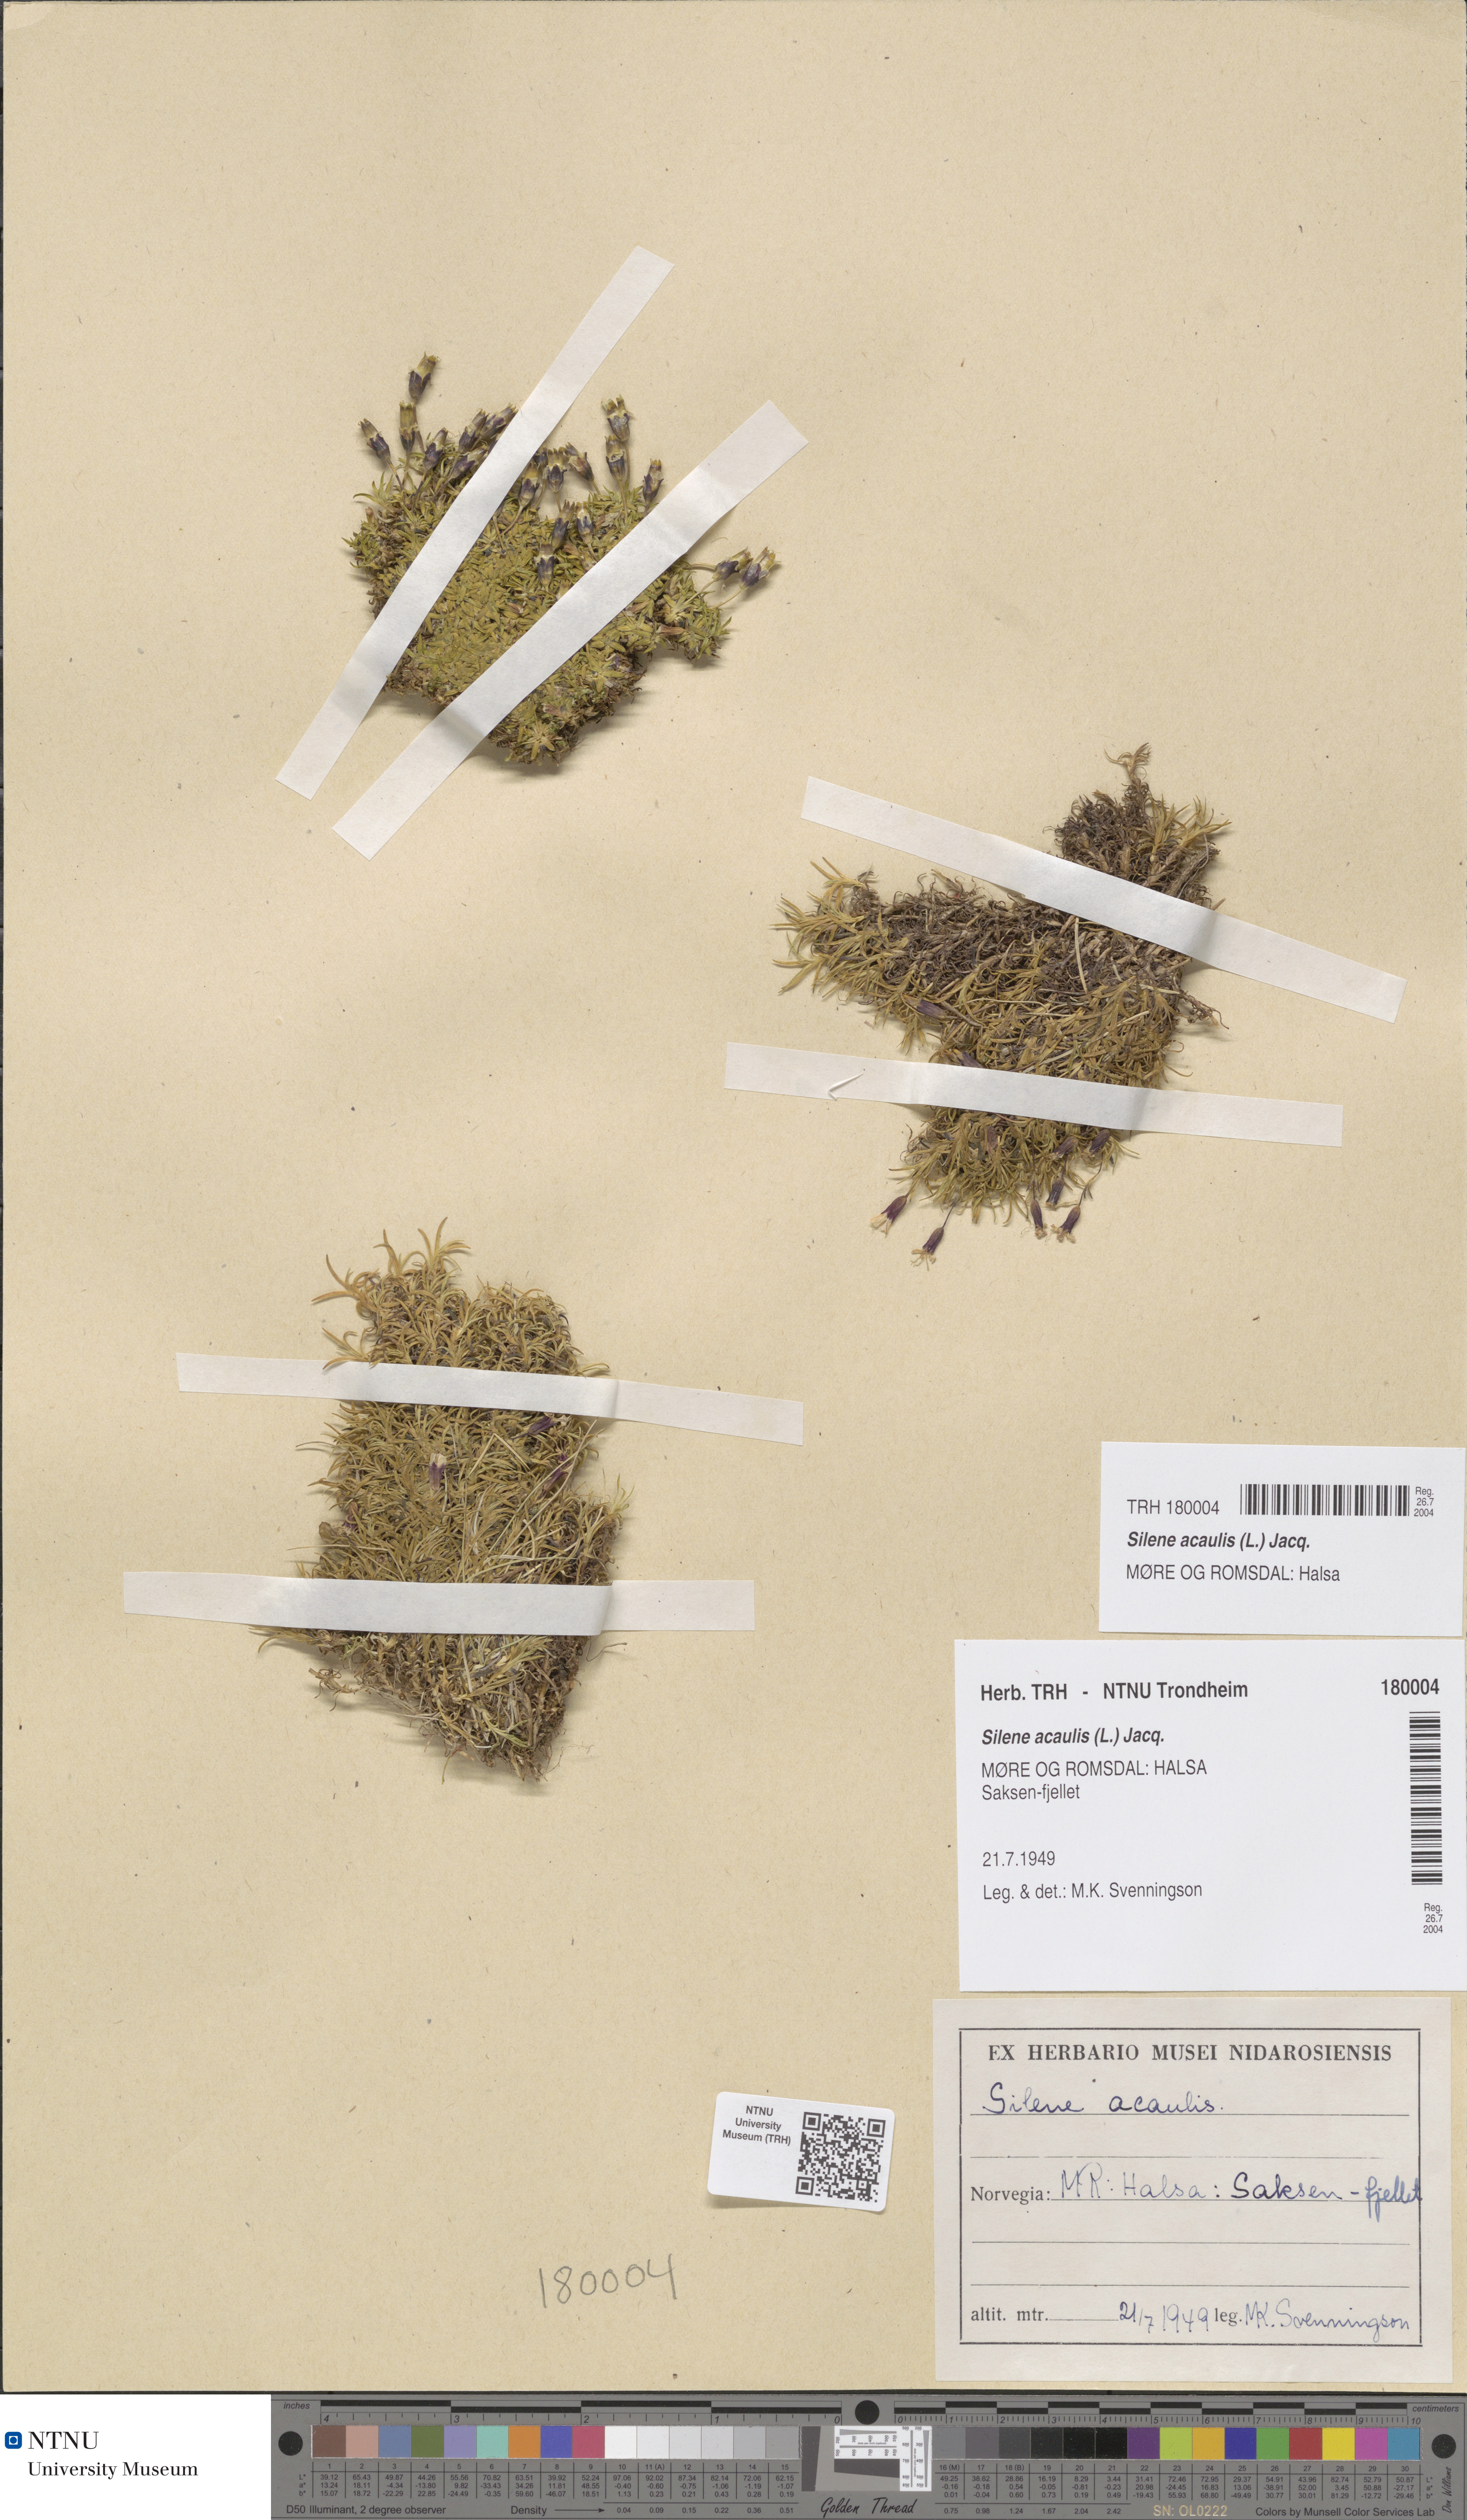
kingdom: Plantae
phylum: Tracheophyta
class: Magnoliopsida
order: Caryophyllales
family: Caryophyllaceae
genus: Silene
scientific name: Silene acaulis
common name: Moss campion
